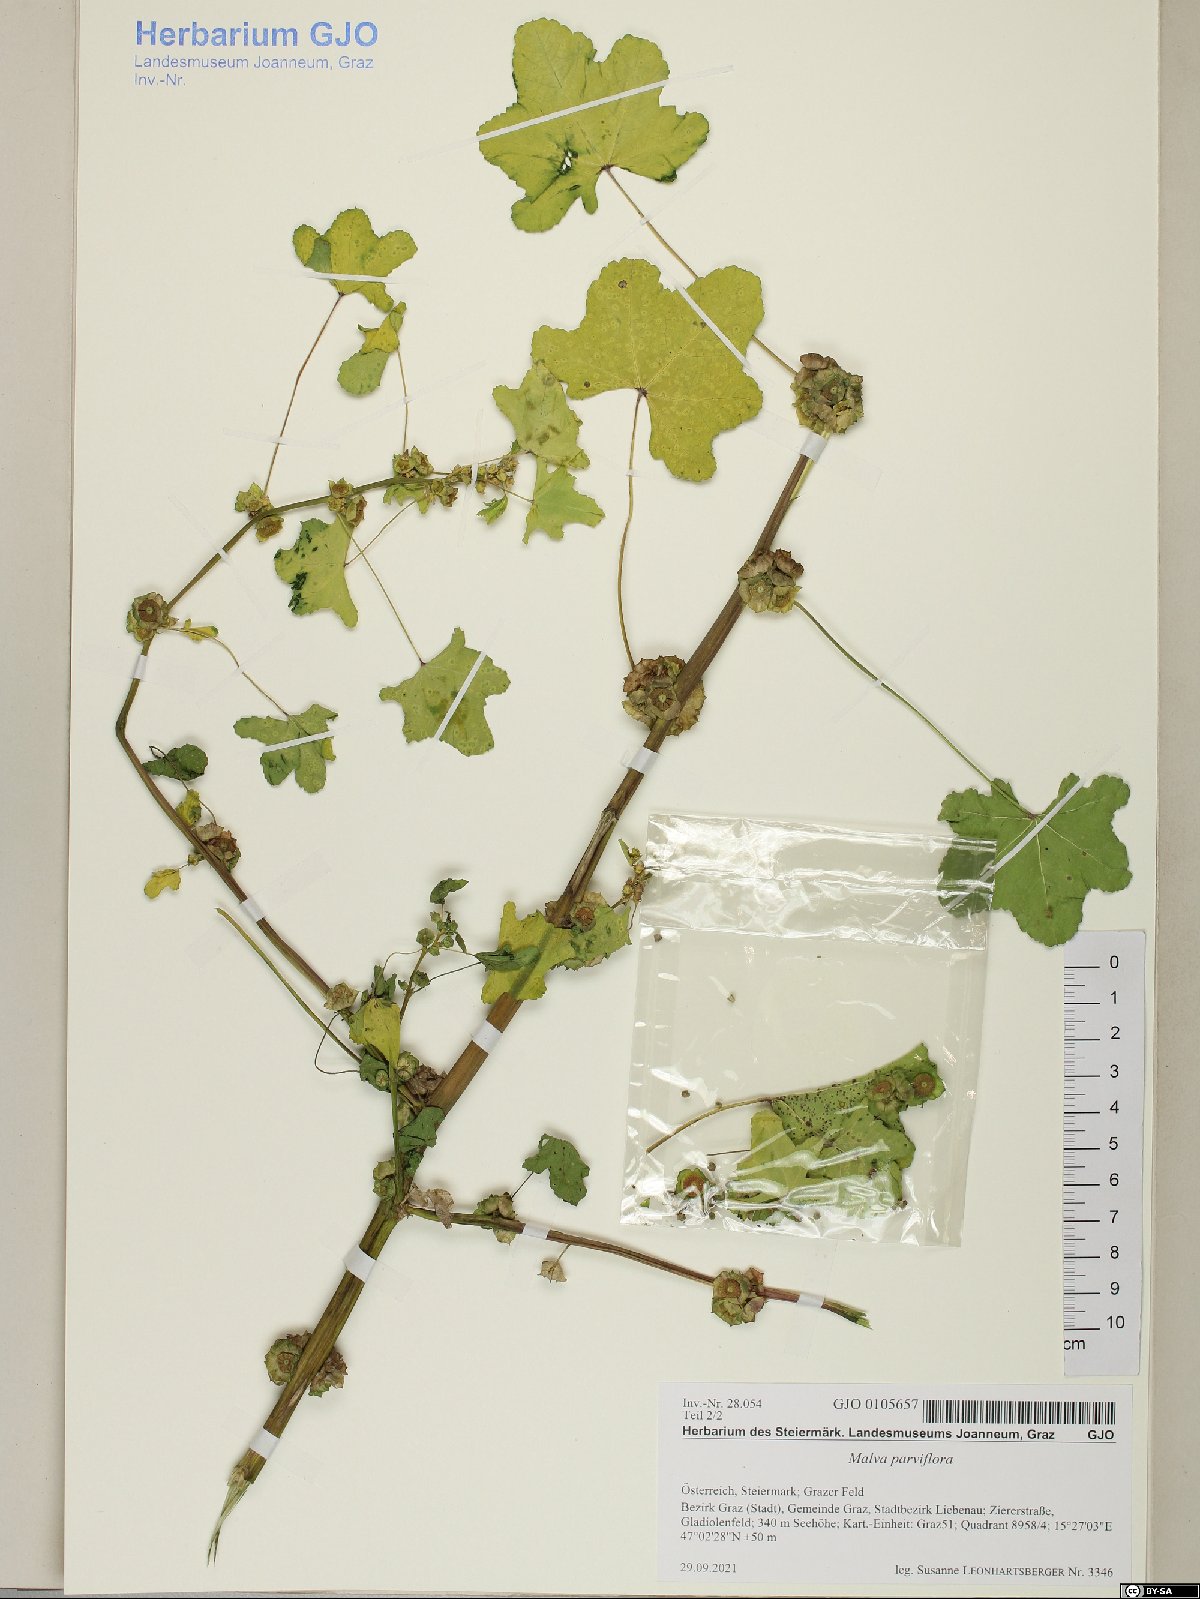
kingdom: Plantae
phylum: Tracheophyta
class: Magnoliopsida
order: Malvales
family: Malvaceae
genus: Malva
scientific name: Malva parviflora
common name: Least mallow
